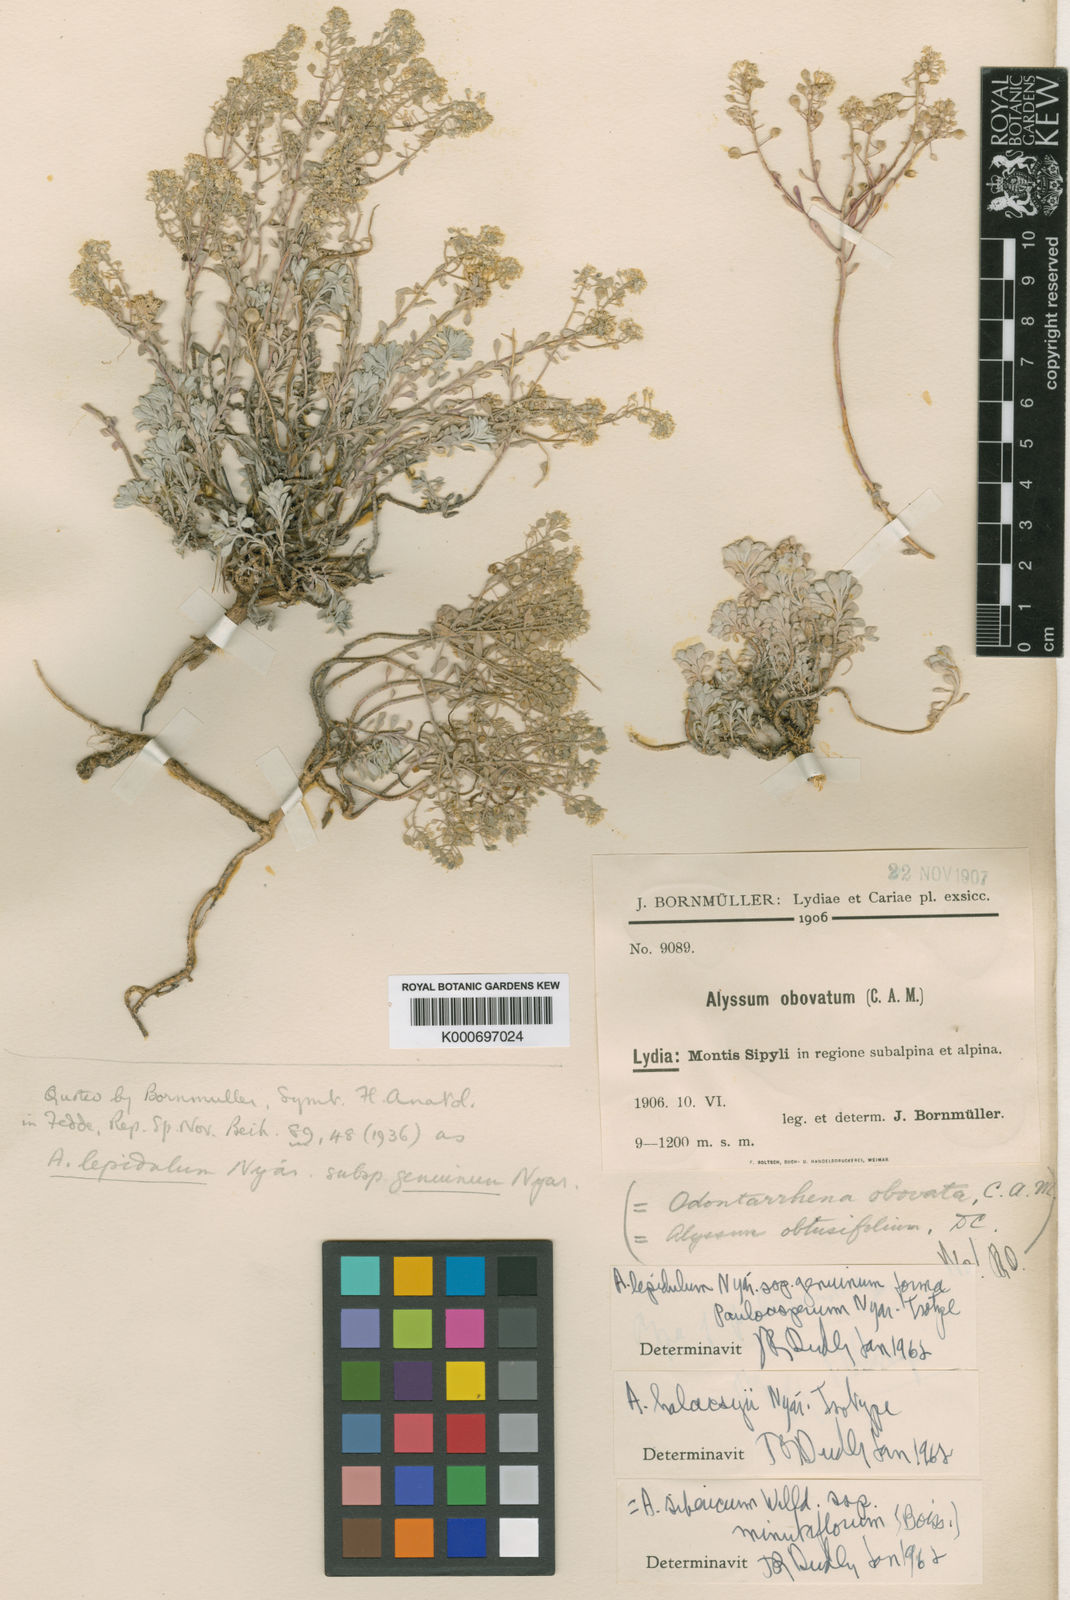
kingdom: Plantae
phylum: Tracheophyta
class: Magnoliopsida
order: Brassicales
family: Brassicaceae
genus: Odontarrhena
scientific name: Odontarrhena sibirica
